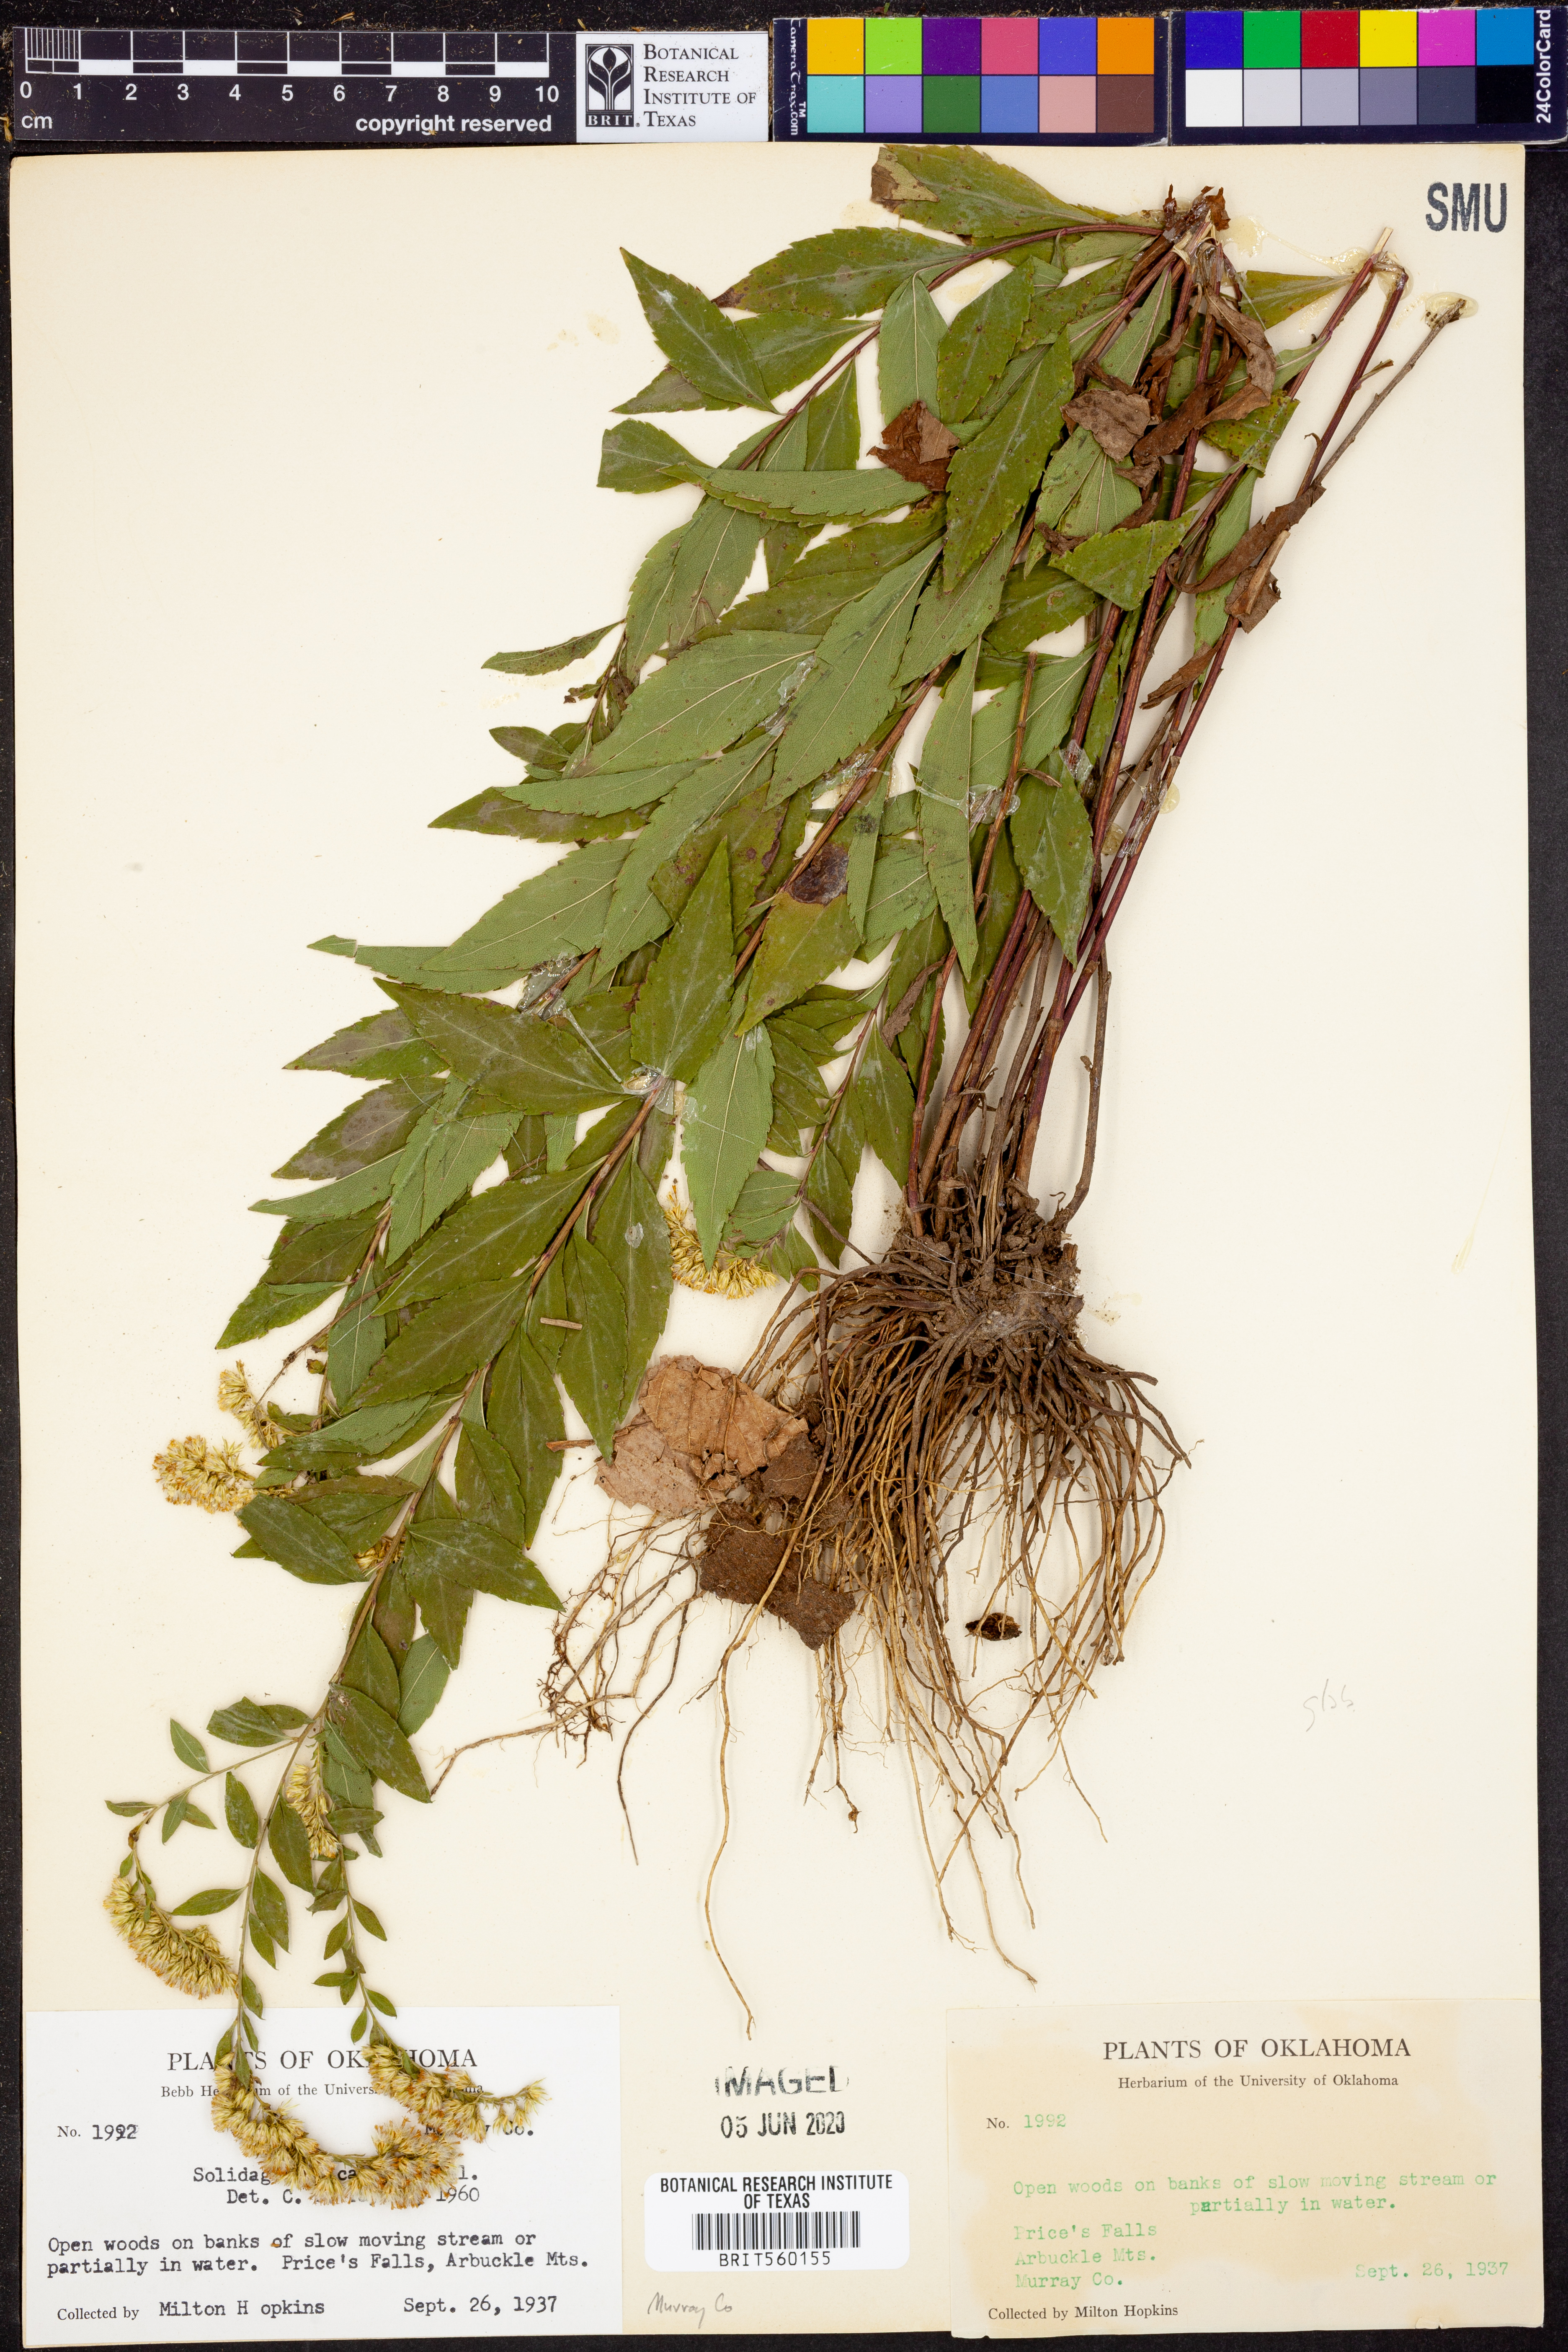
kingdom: Plantae
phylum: Tracheophyta
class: Magnoliopsida
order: Asterales
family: Asteraceae
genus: Solidago
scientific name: Solidago delicatula
